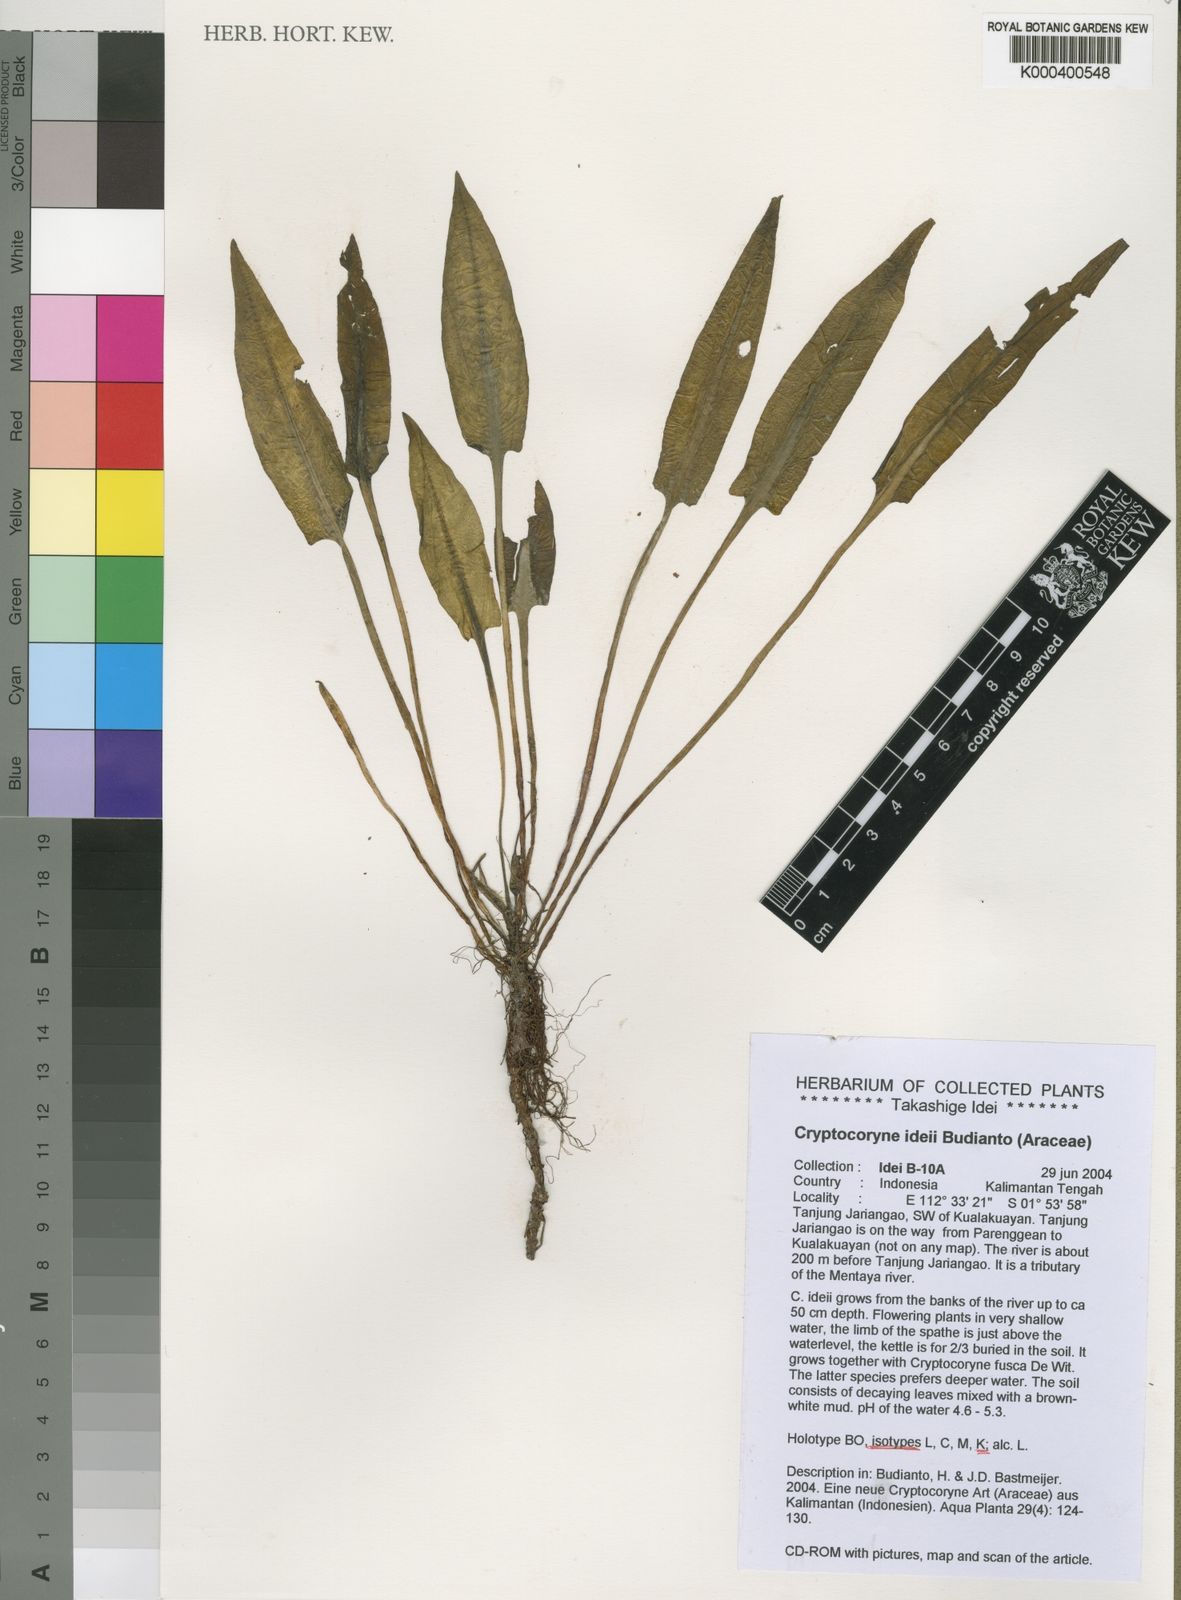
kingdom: Plantae
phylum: Tracheophyta
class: Liliopsida
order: Alismatales
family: Araceae
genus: Cryptocoryne
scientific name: Cryptocoryne ideii
